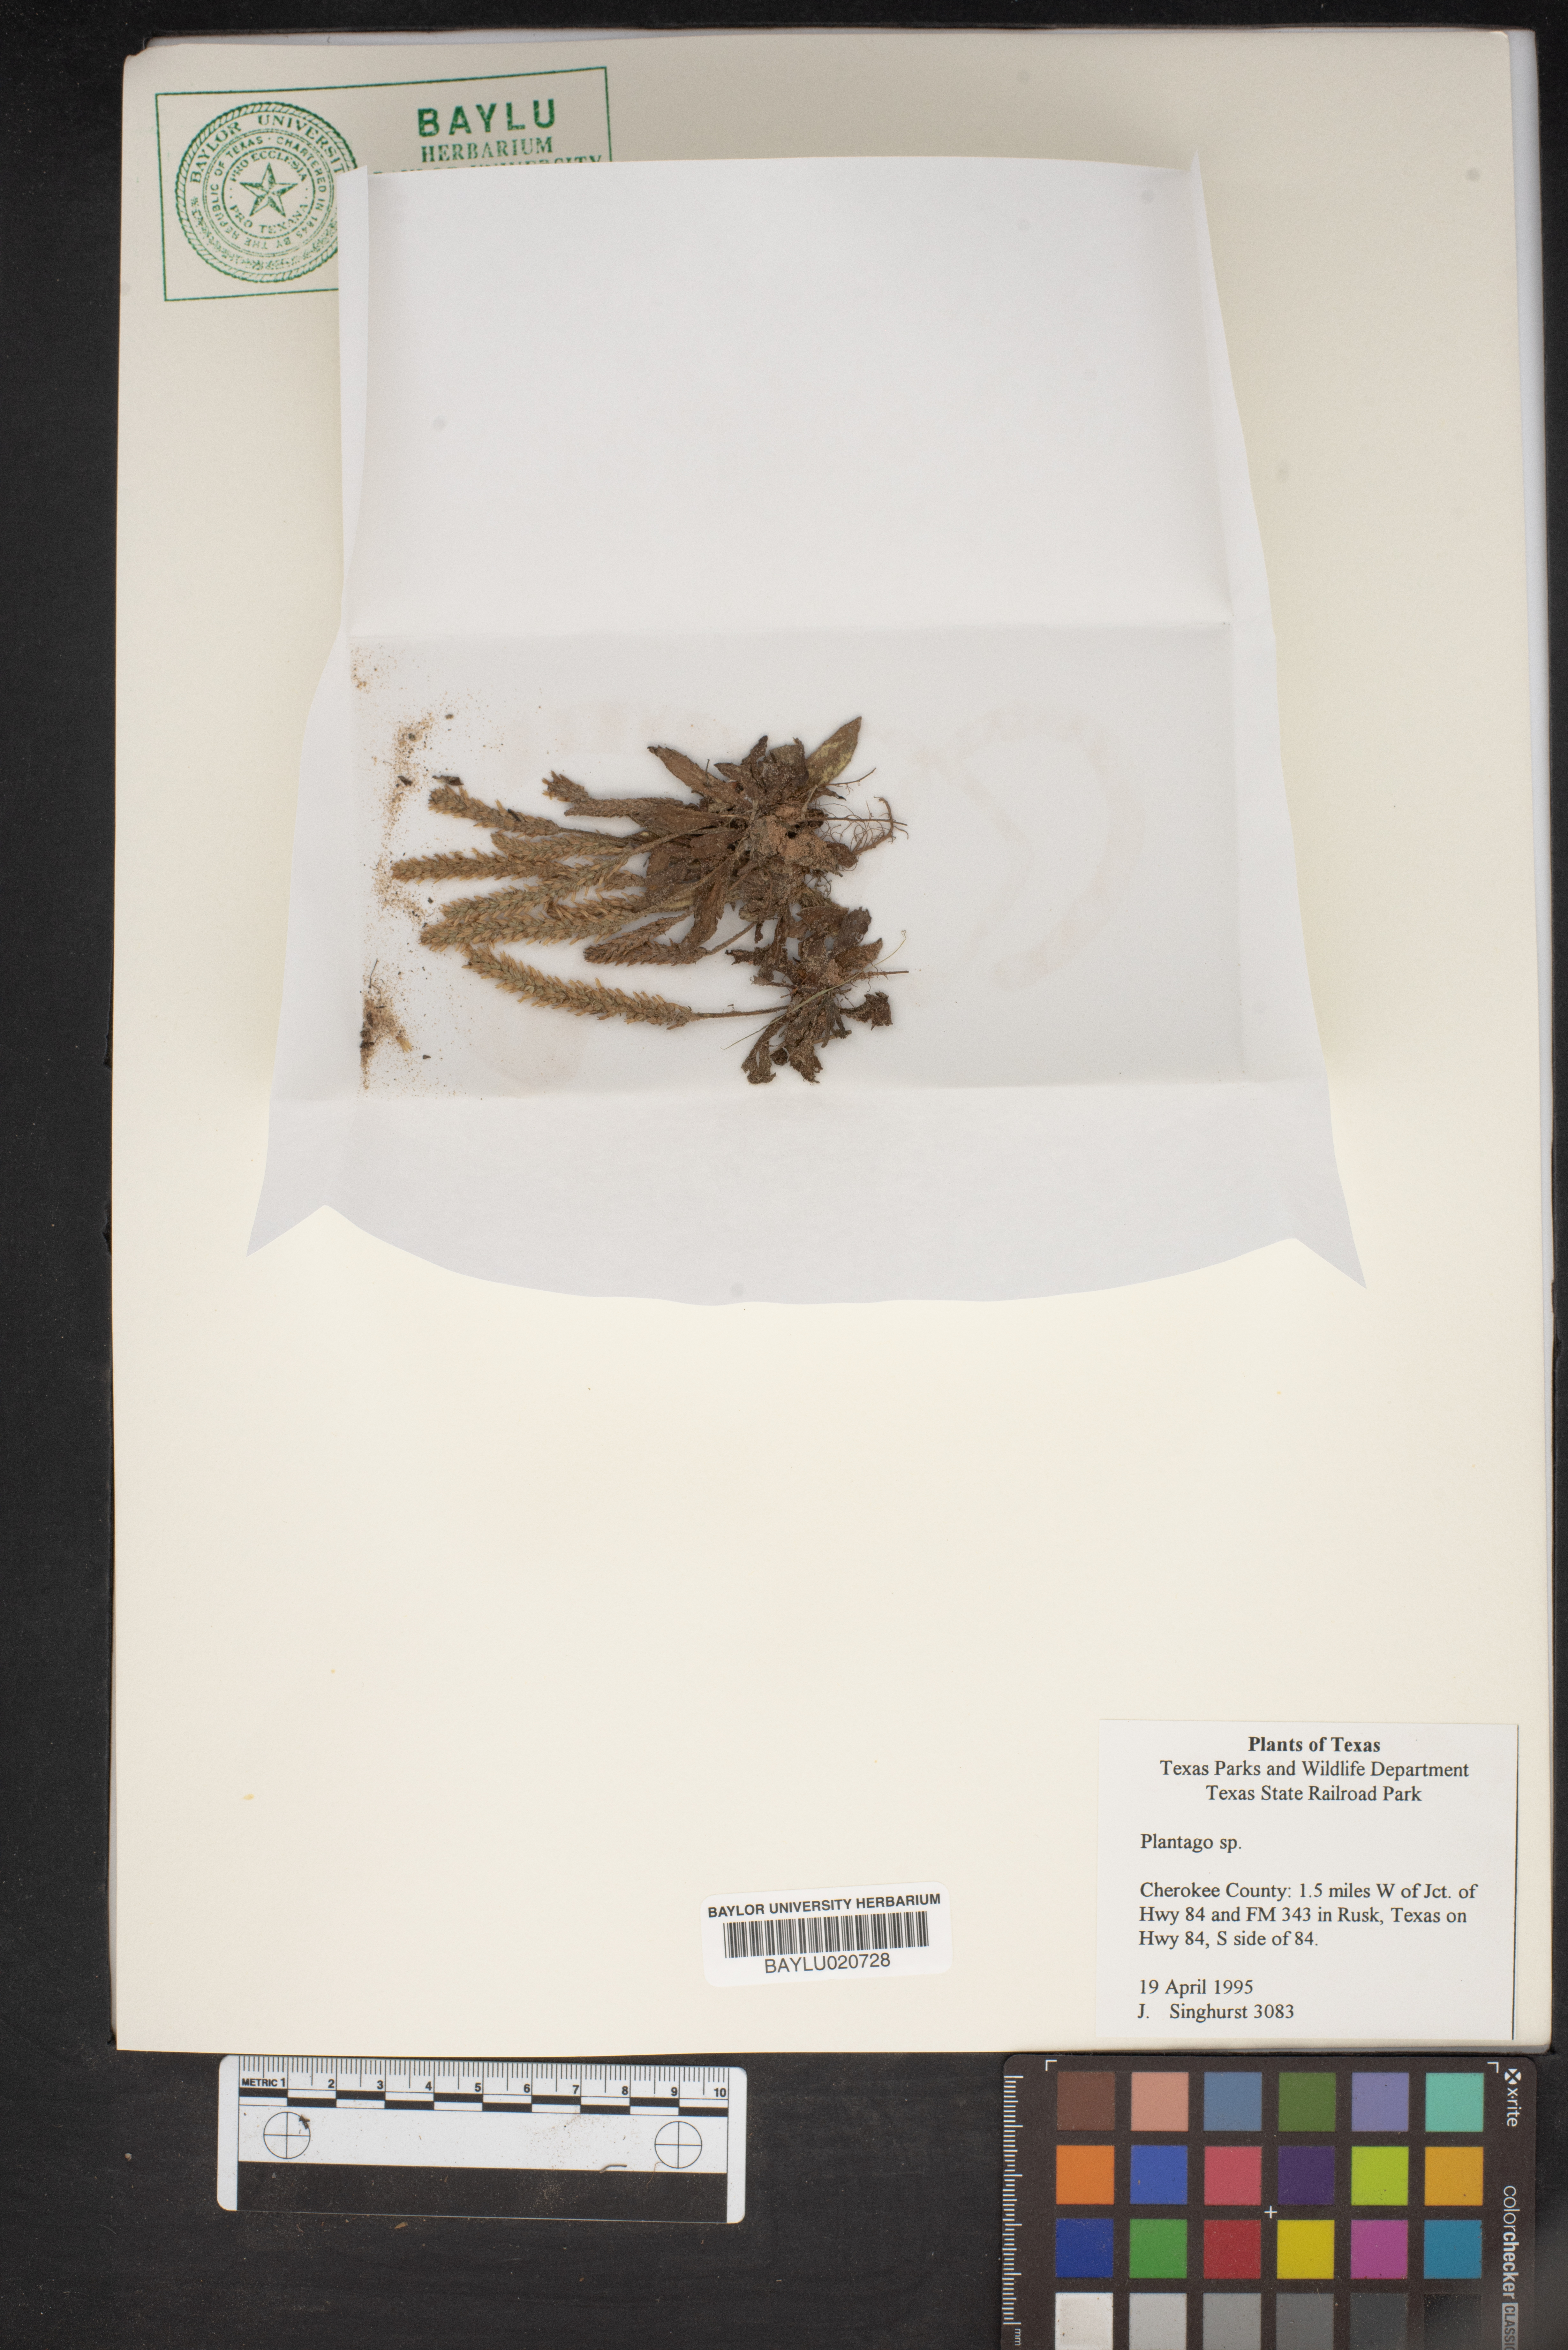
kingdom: Plantae
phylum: Tracheophyta
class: Magnoliopsida
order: Lamiales
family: Plantaginaceae
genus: Plantago
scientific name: Plantago
